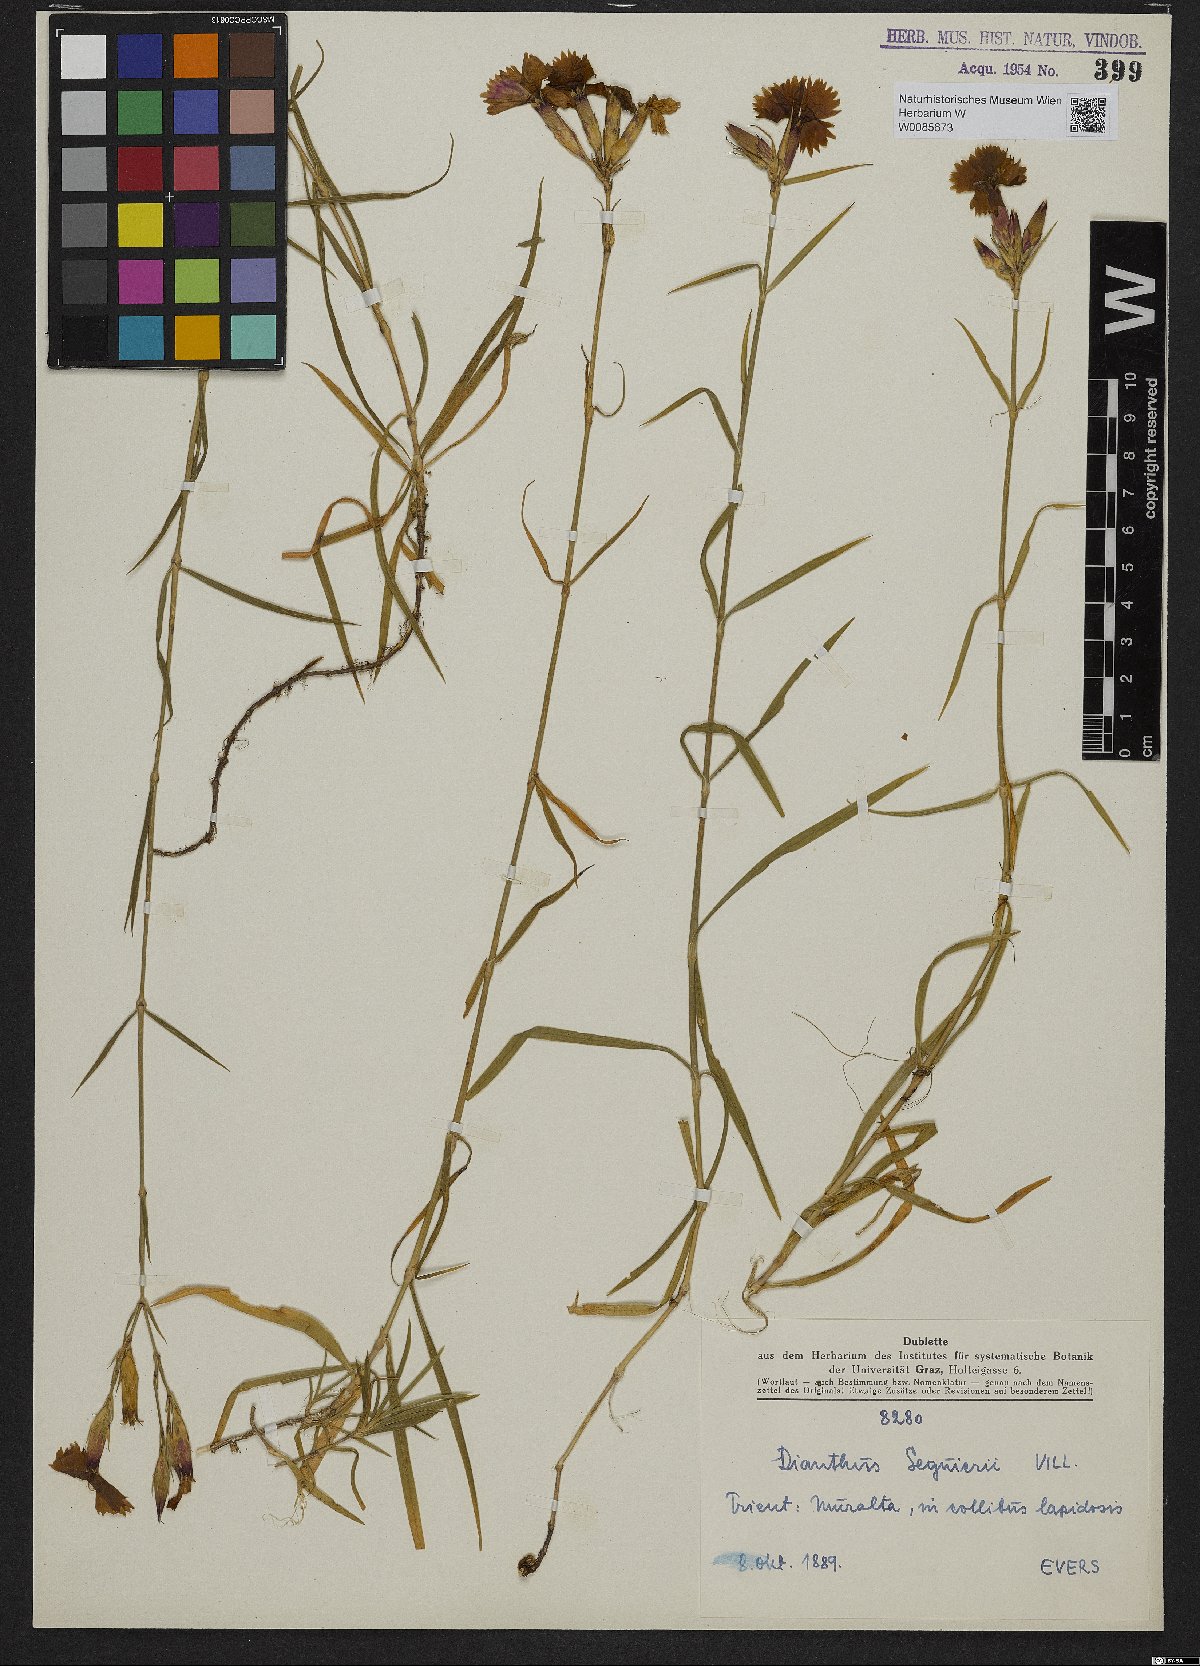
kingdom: Plantae
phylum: Tracheophyta
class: Magnoliopsida
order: Caryophyllales
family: Caryophyllaceae
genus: Dianthus
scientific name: Dianthus seguieri
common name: Ragged pink
